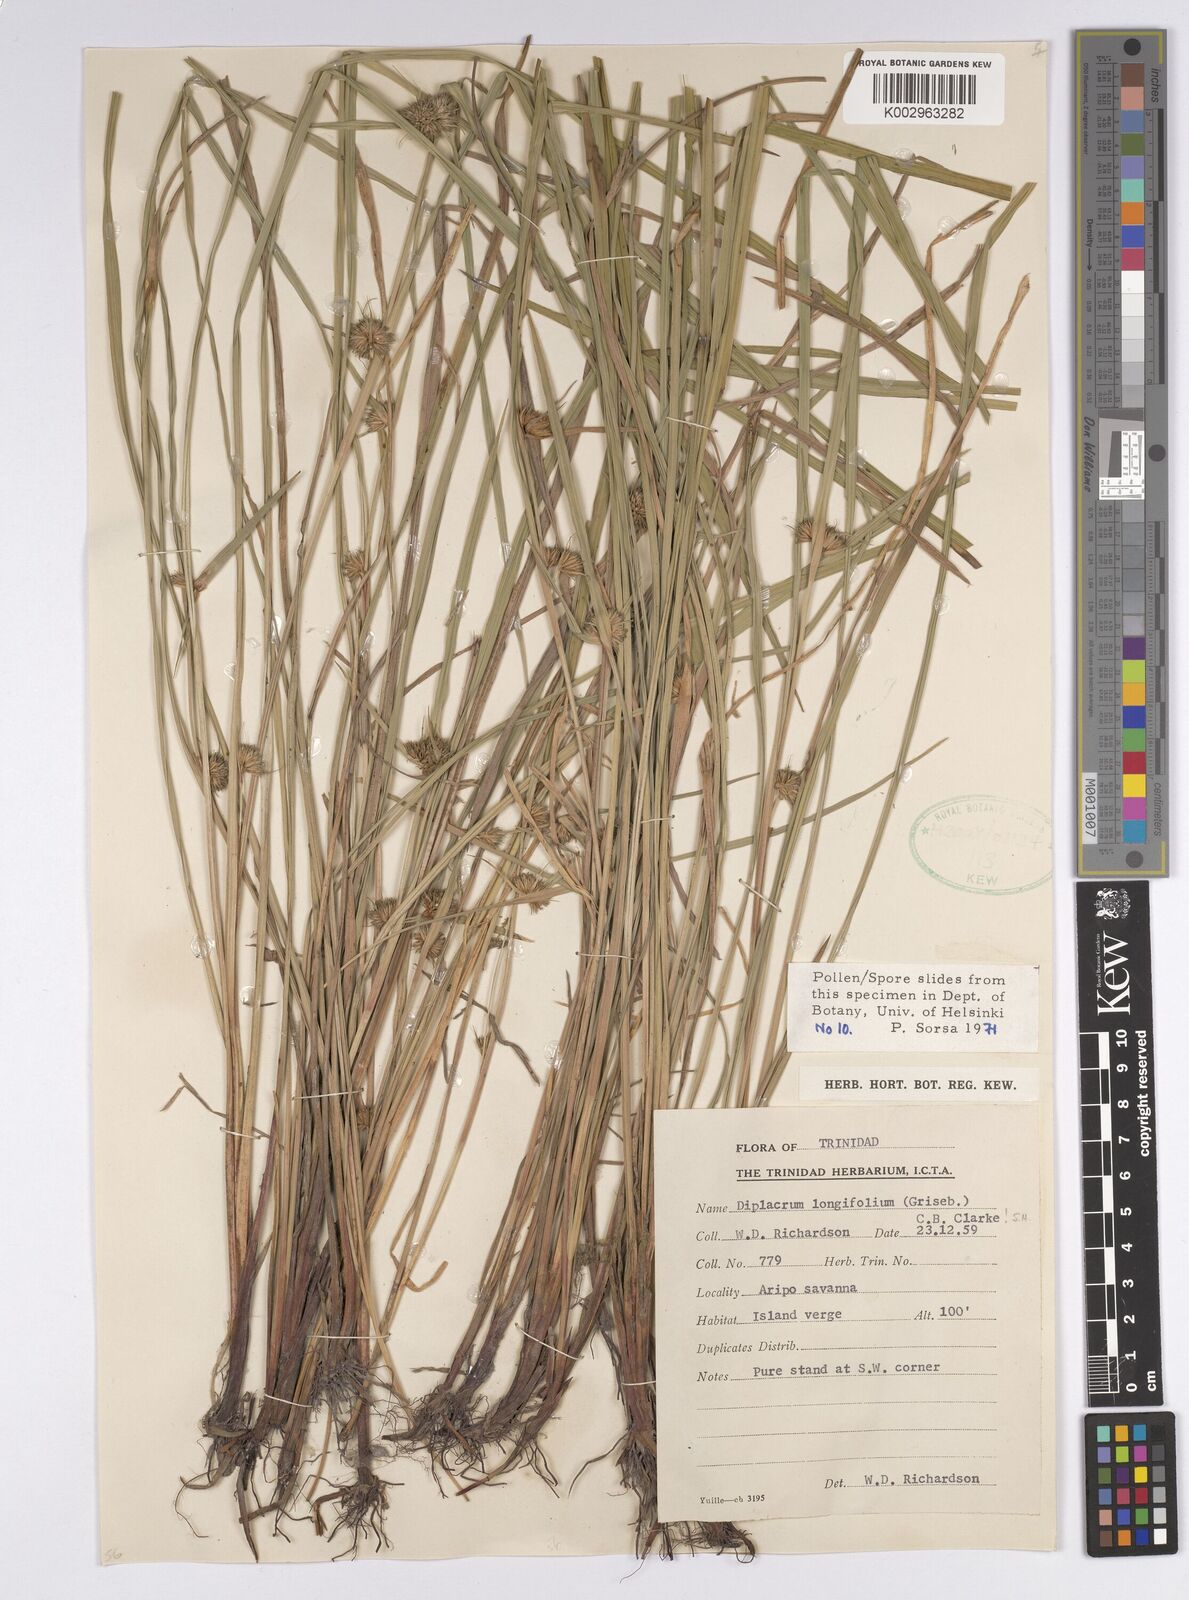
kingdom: Plantae
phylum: Tracheophyta
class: Liliopsida
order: Poales
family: Cyperaceae
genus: Diplacrum
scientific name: Diplacrum capitatum
